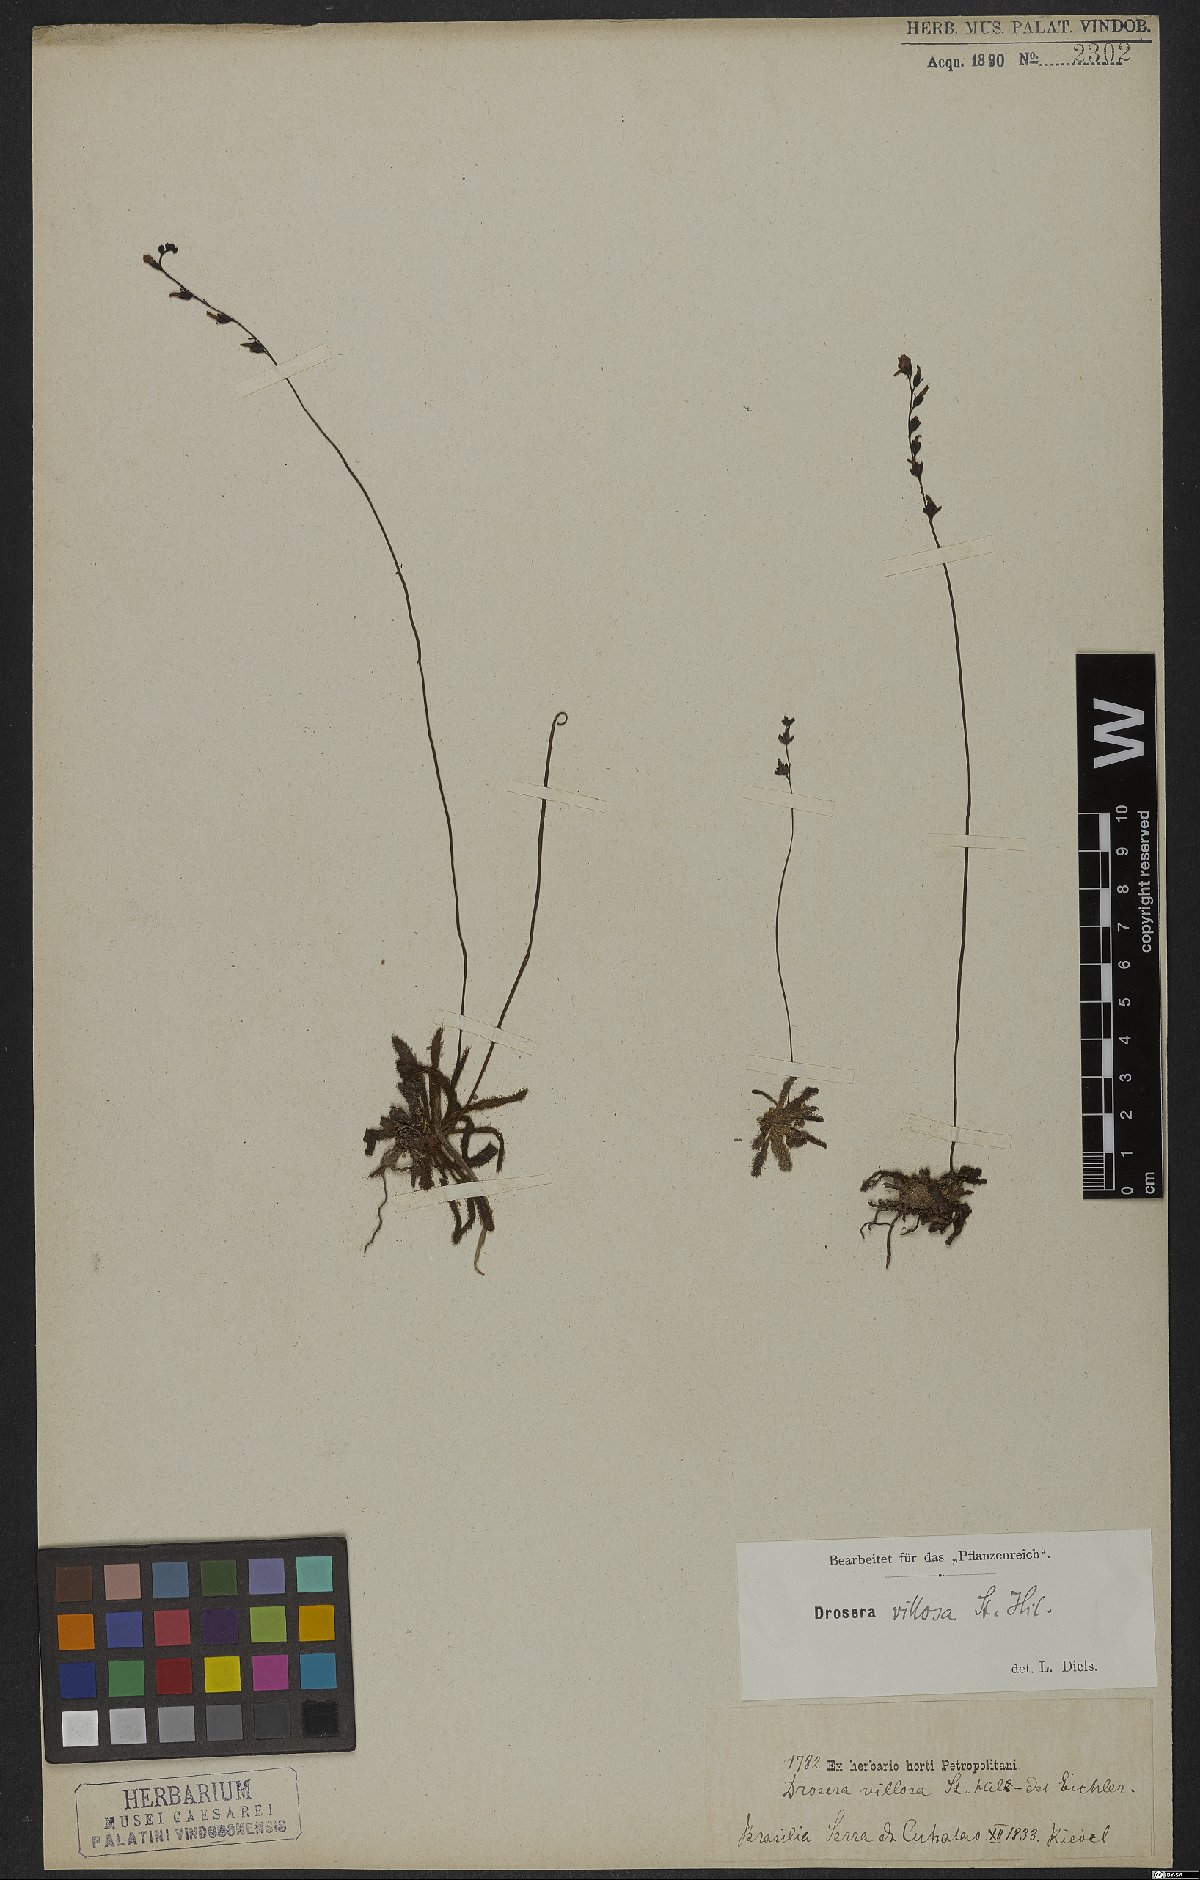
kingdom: Plantae
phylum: Tracheophyta
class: Magnoliopsida
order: Caryophyllales
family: Droseraceae
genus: Drosera
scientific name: Drosera latifolia
